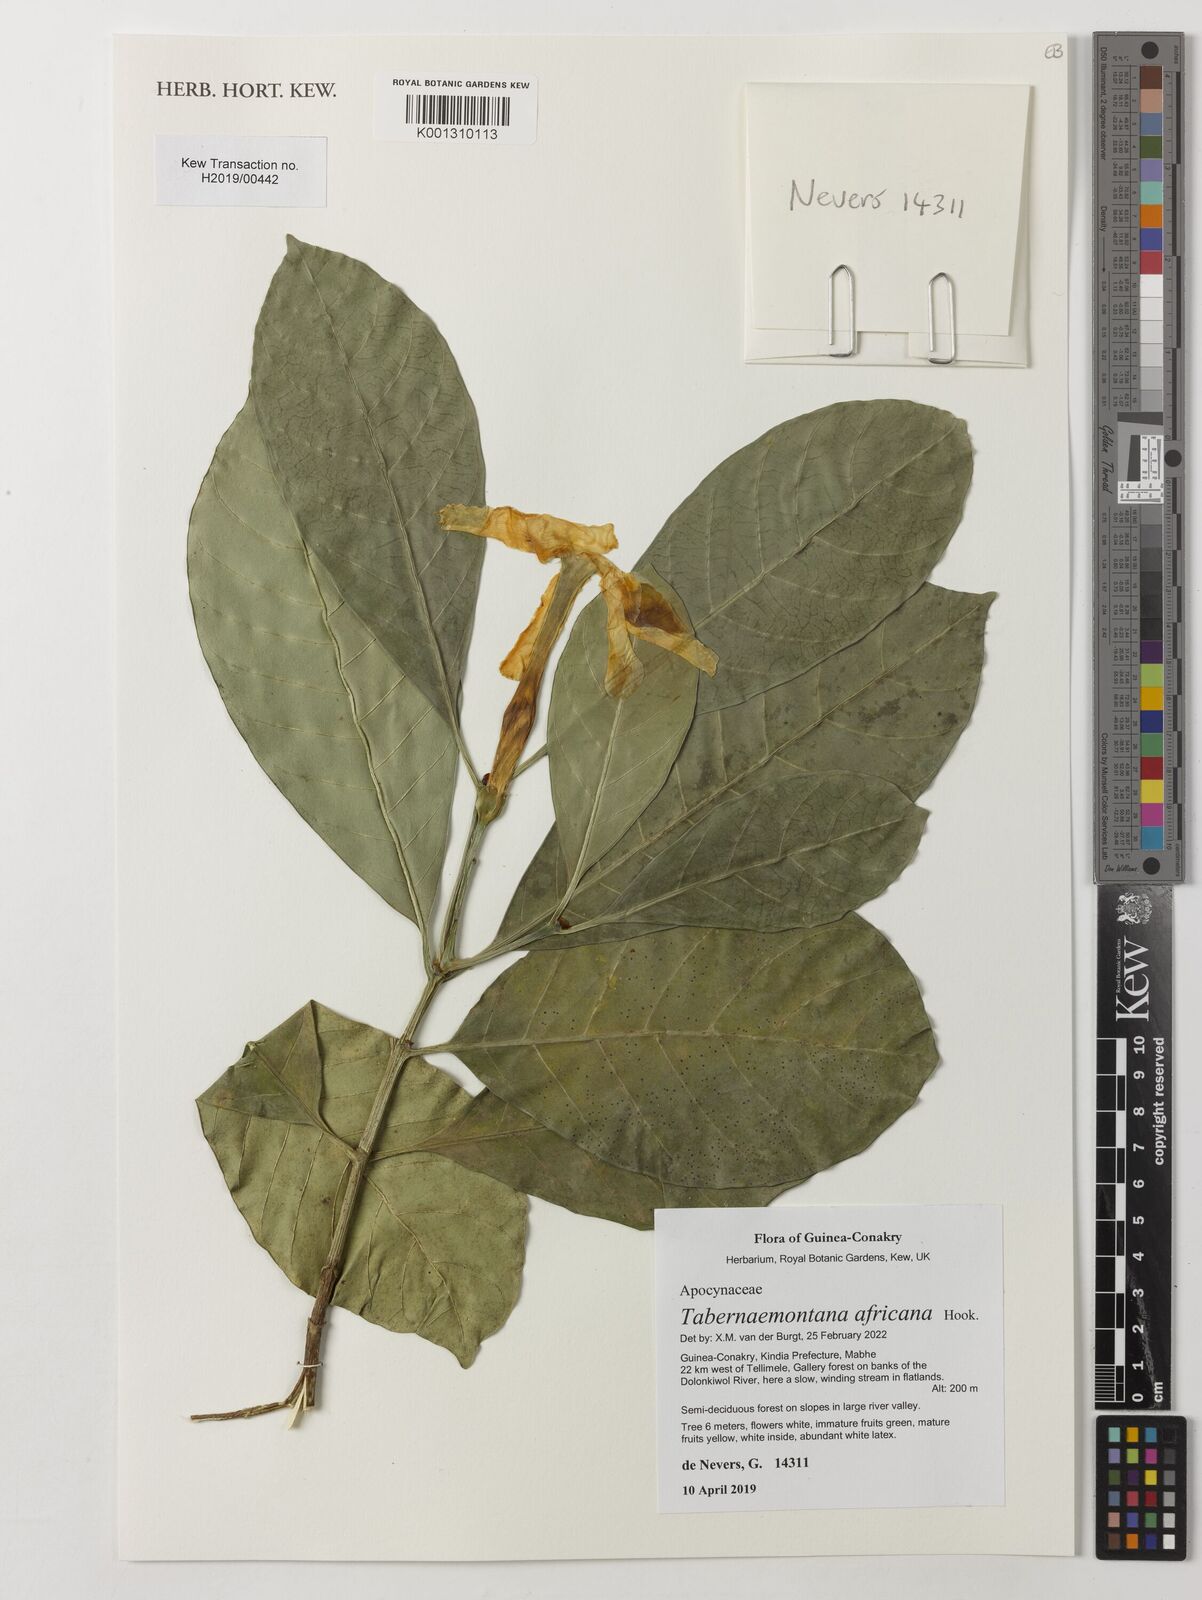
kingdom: Plantae
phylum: Tracheophyta
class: Magnoliopsida
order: Gentianales
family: Apocynaceae
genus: Tabernaemontana
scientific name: Tabernaemontana africana
